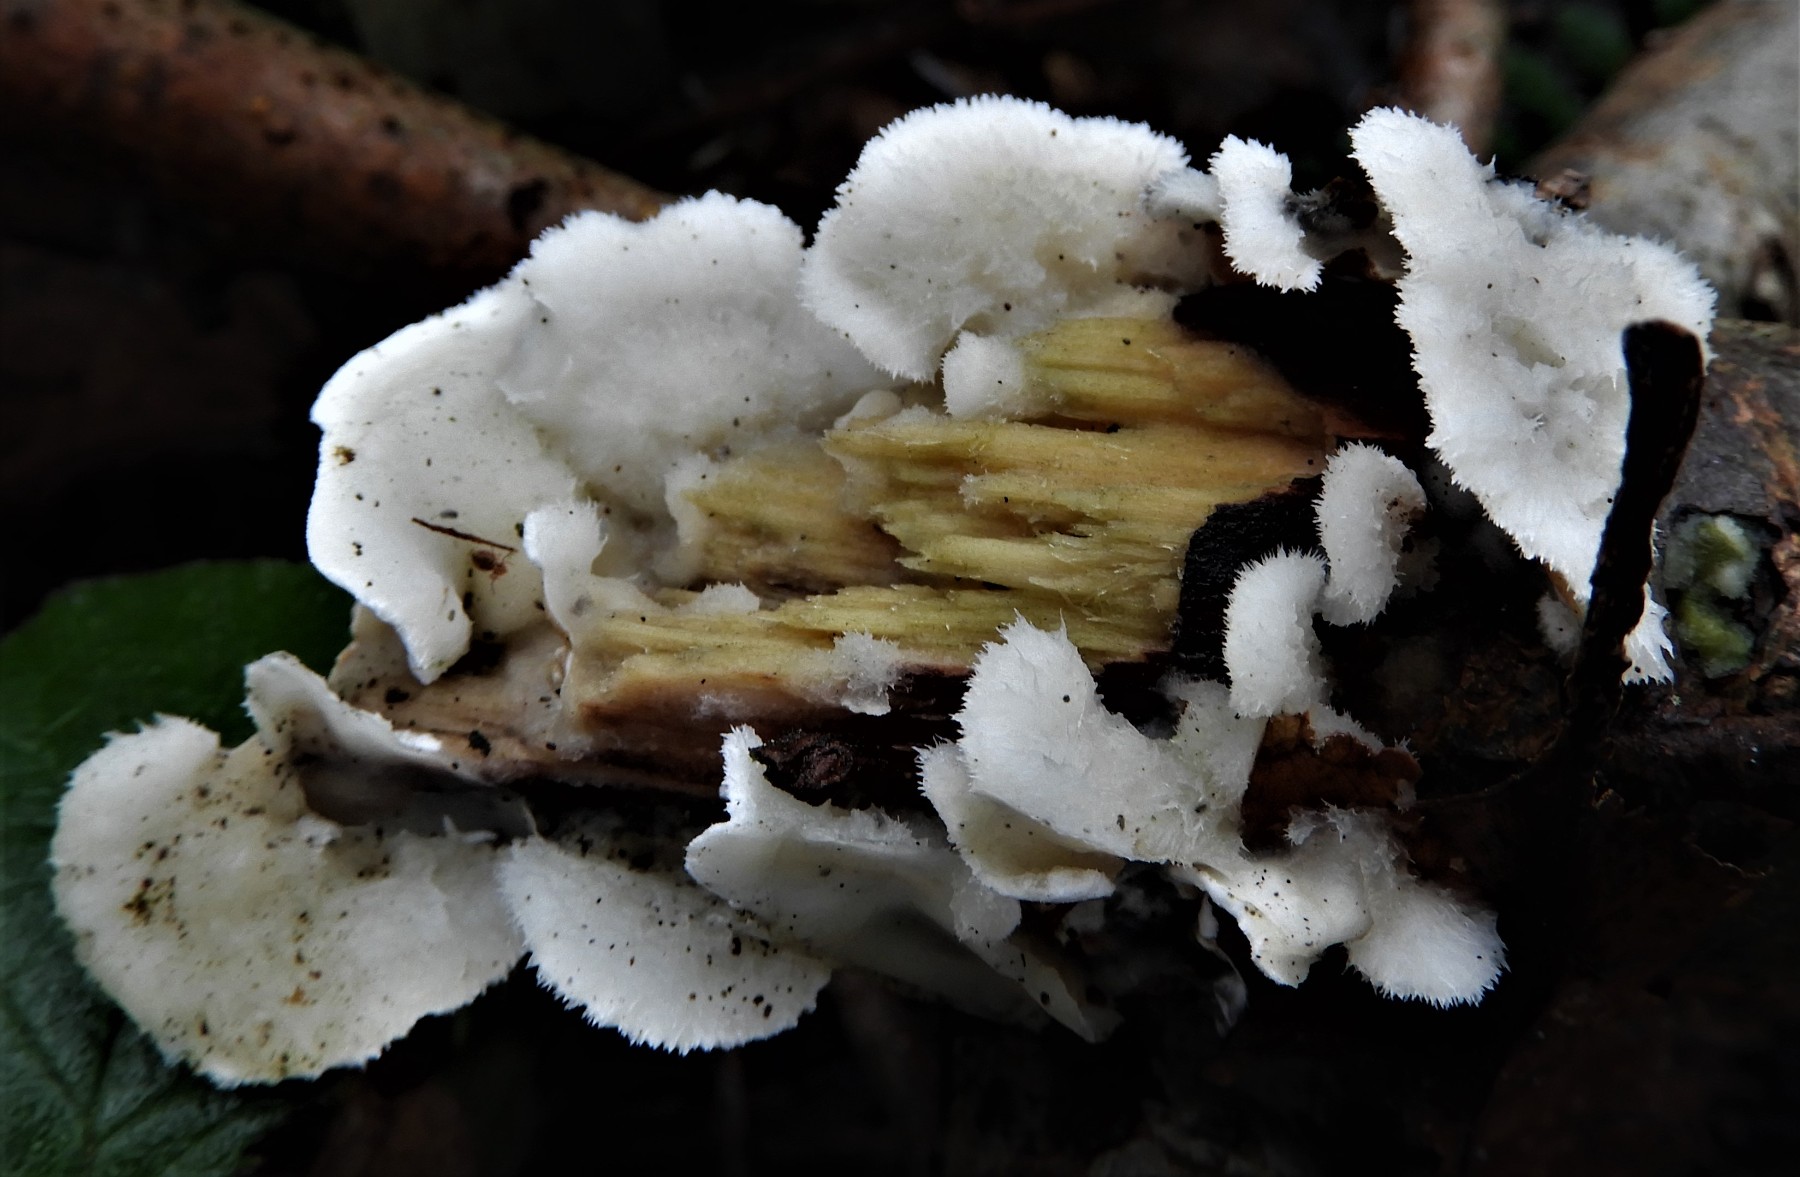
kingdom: Fungi
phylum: Basidiomycota
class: Agaricomycetes
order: Polyporales
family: Irpicaceae
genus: Vitreoporus
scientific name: Vitreoporus dichrous
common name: tofarvet foldporesvamp
